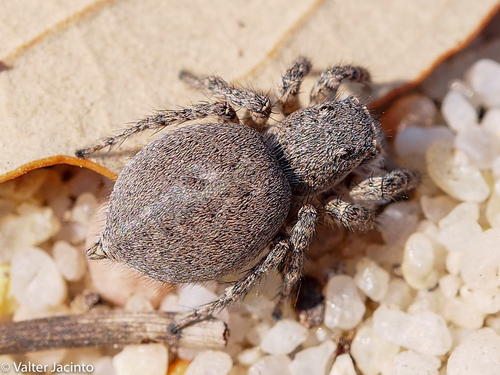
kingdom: Animalia
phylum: Arthropoda
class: Arachnida
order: Araneae
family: Salticidae
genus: Aelurillus
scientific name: Aelurillus luctuosus
